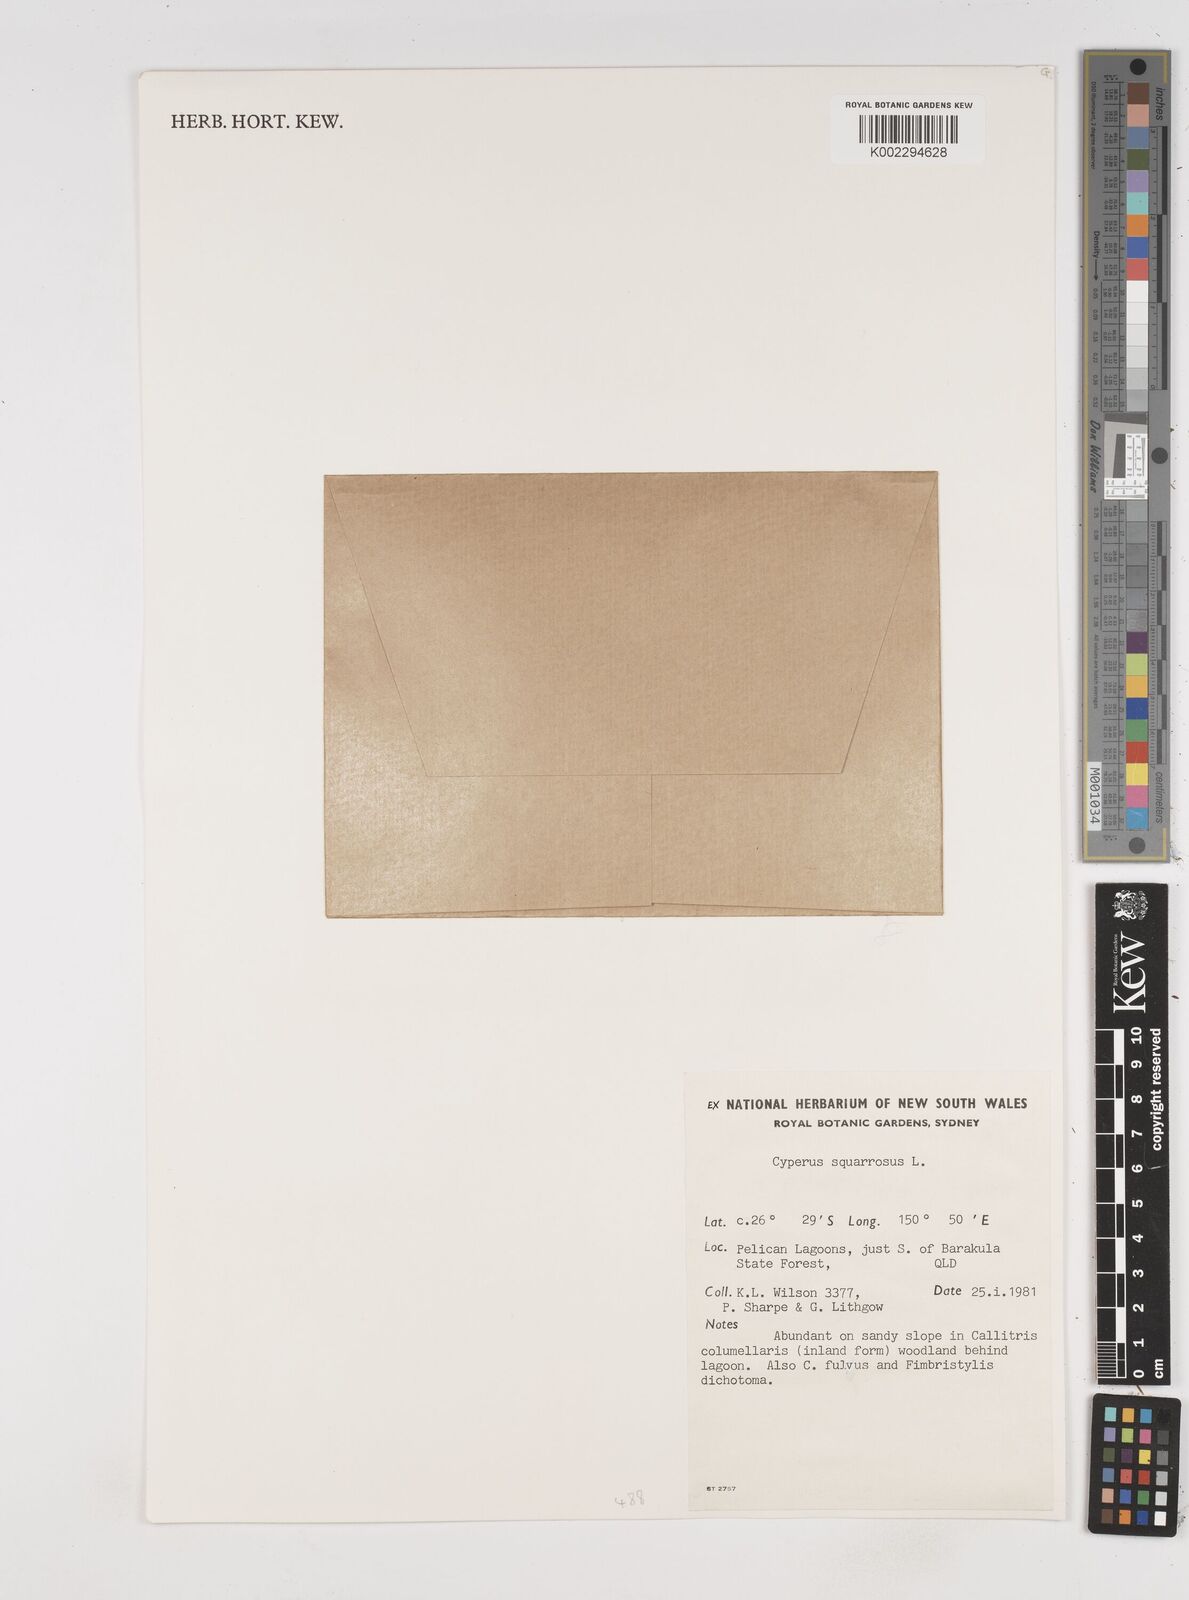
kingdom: Plantae
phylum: Tracheophyta
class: Liliopsida
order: Poales
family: Cyperaceae
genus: Cyperus
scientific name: Cyperus squarrosus
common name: Awned cyperus
